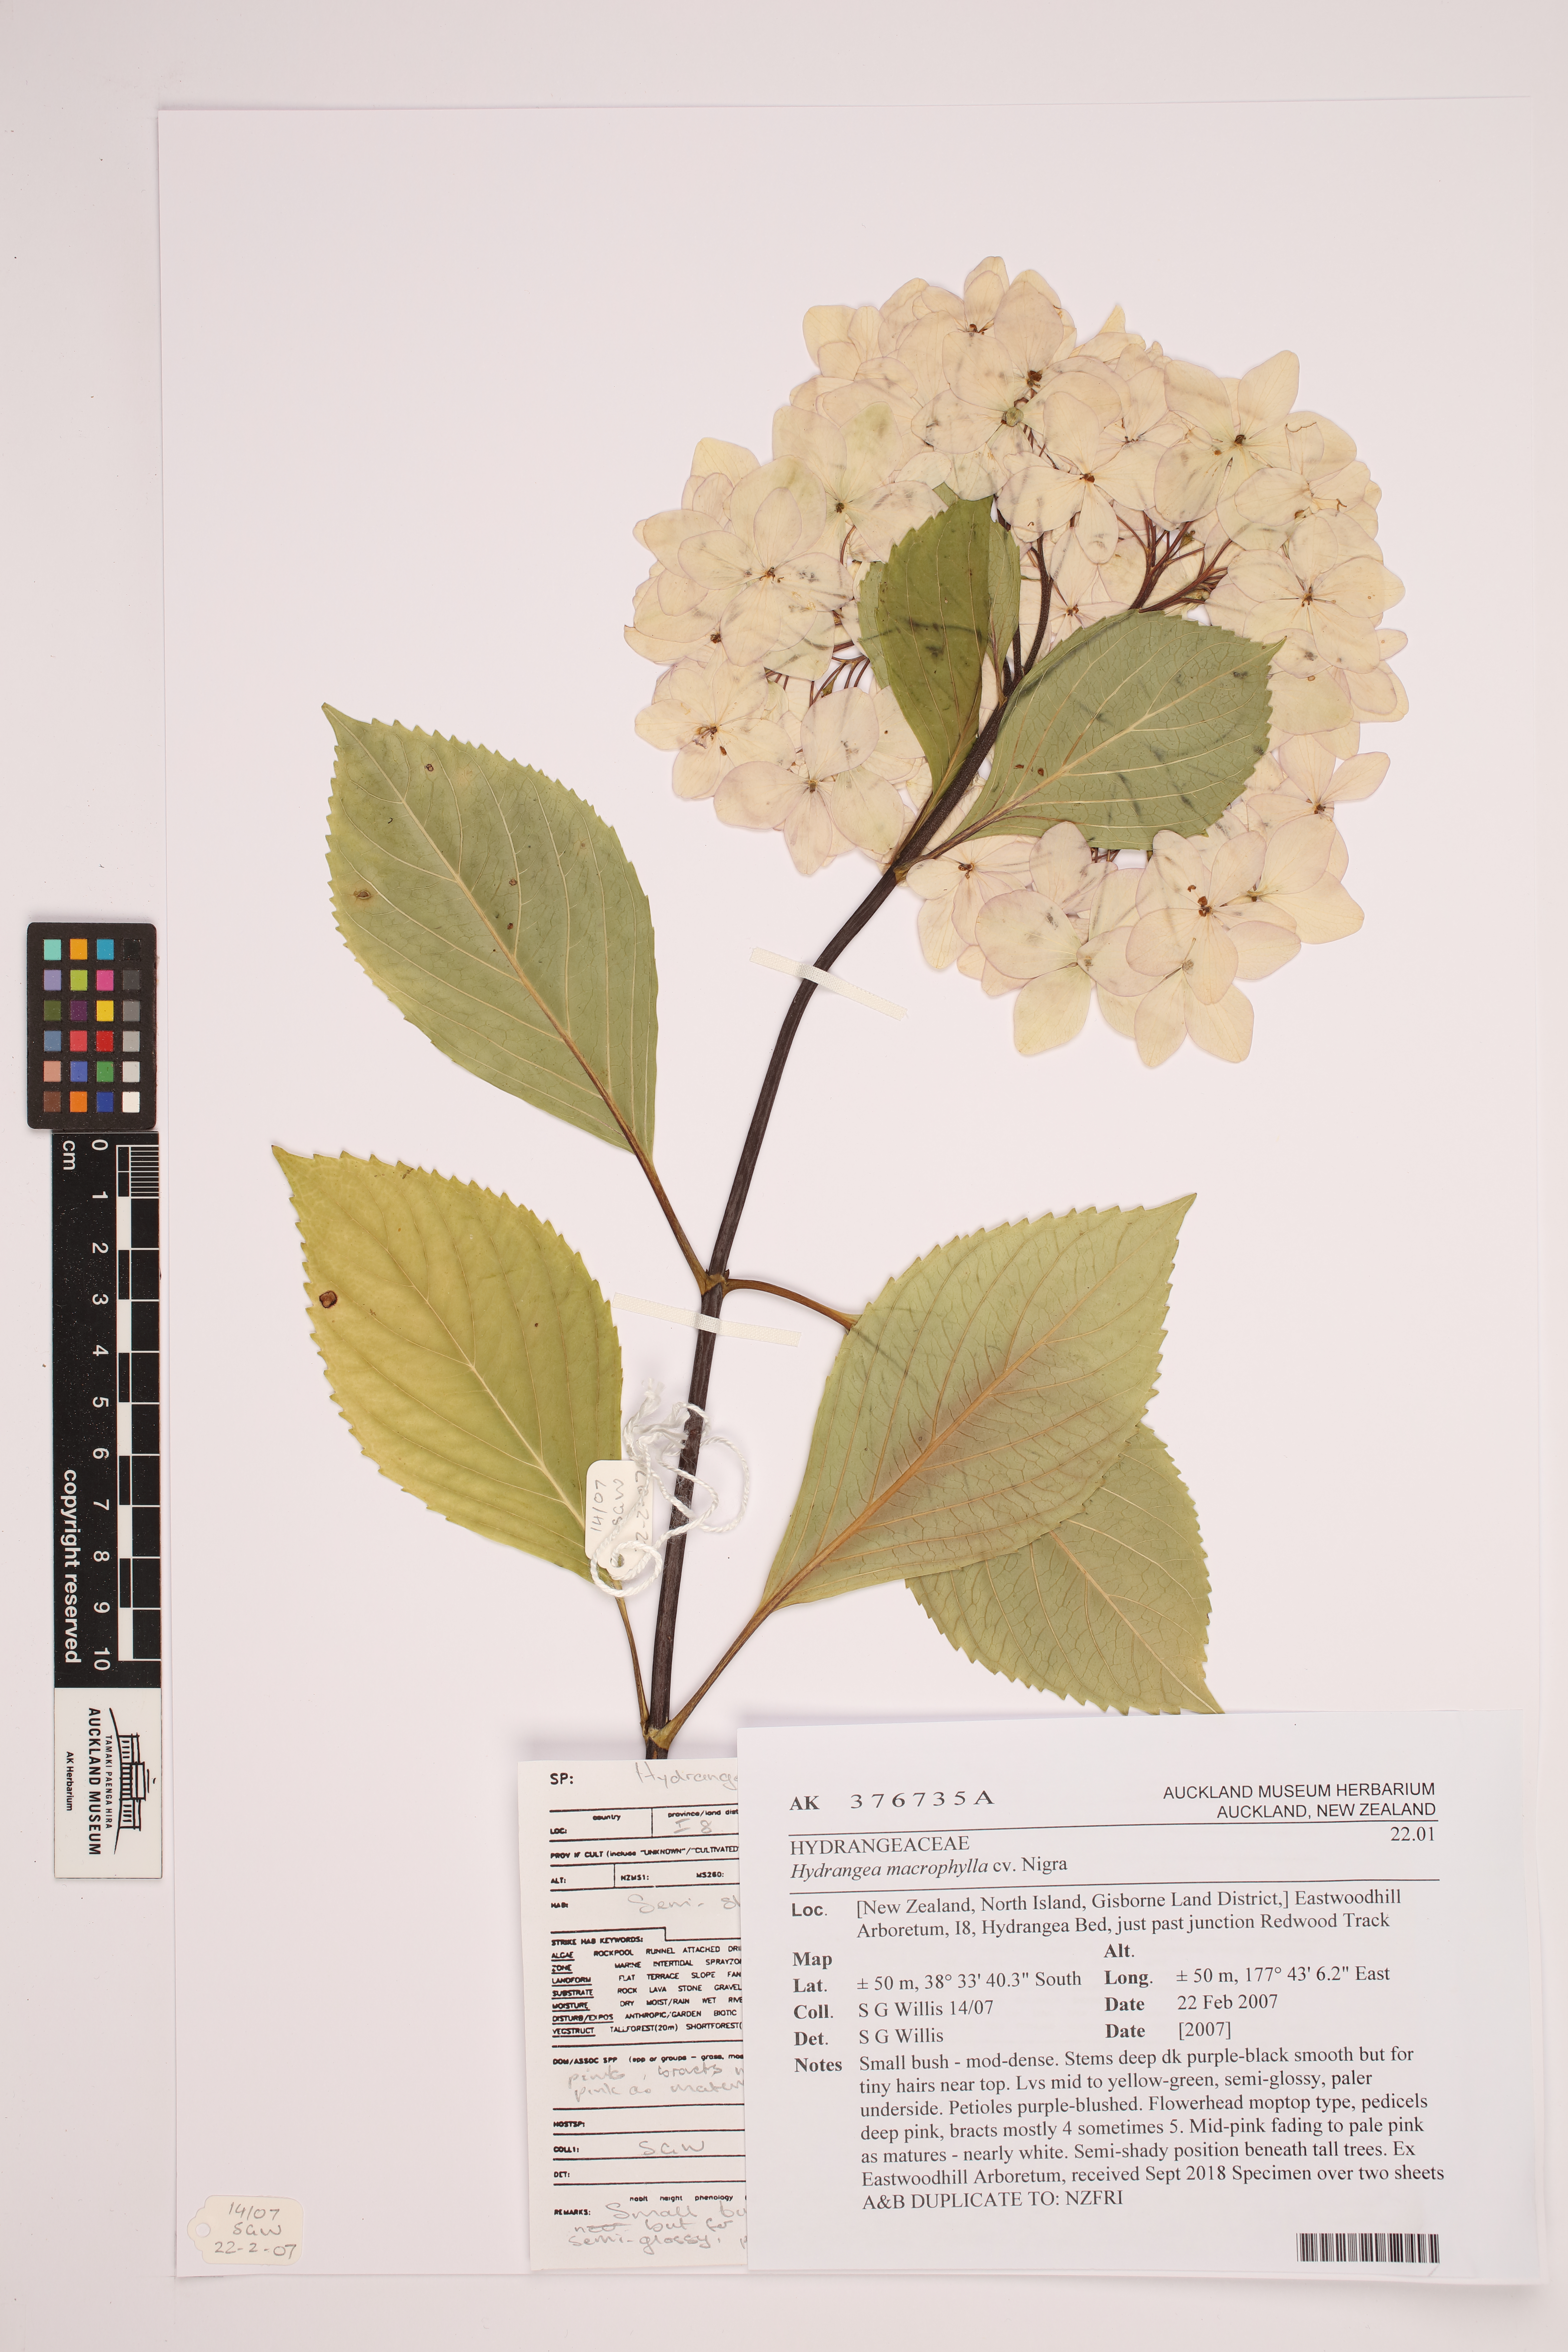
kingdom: Plantae
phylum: Tracheophyta
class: Magnoliopsida
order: Cornales
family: Hydrangeaceae
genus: Hydrangea
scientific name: Hydrangea macrophylla
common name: Hydrangea
